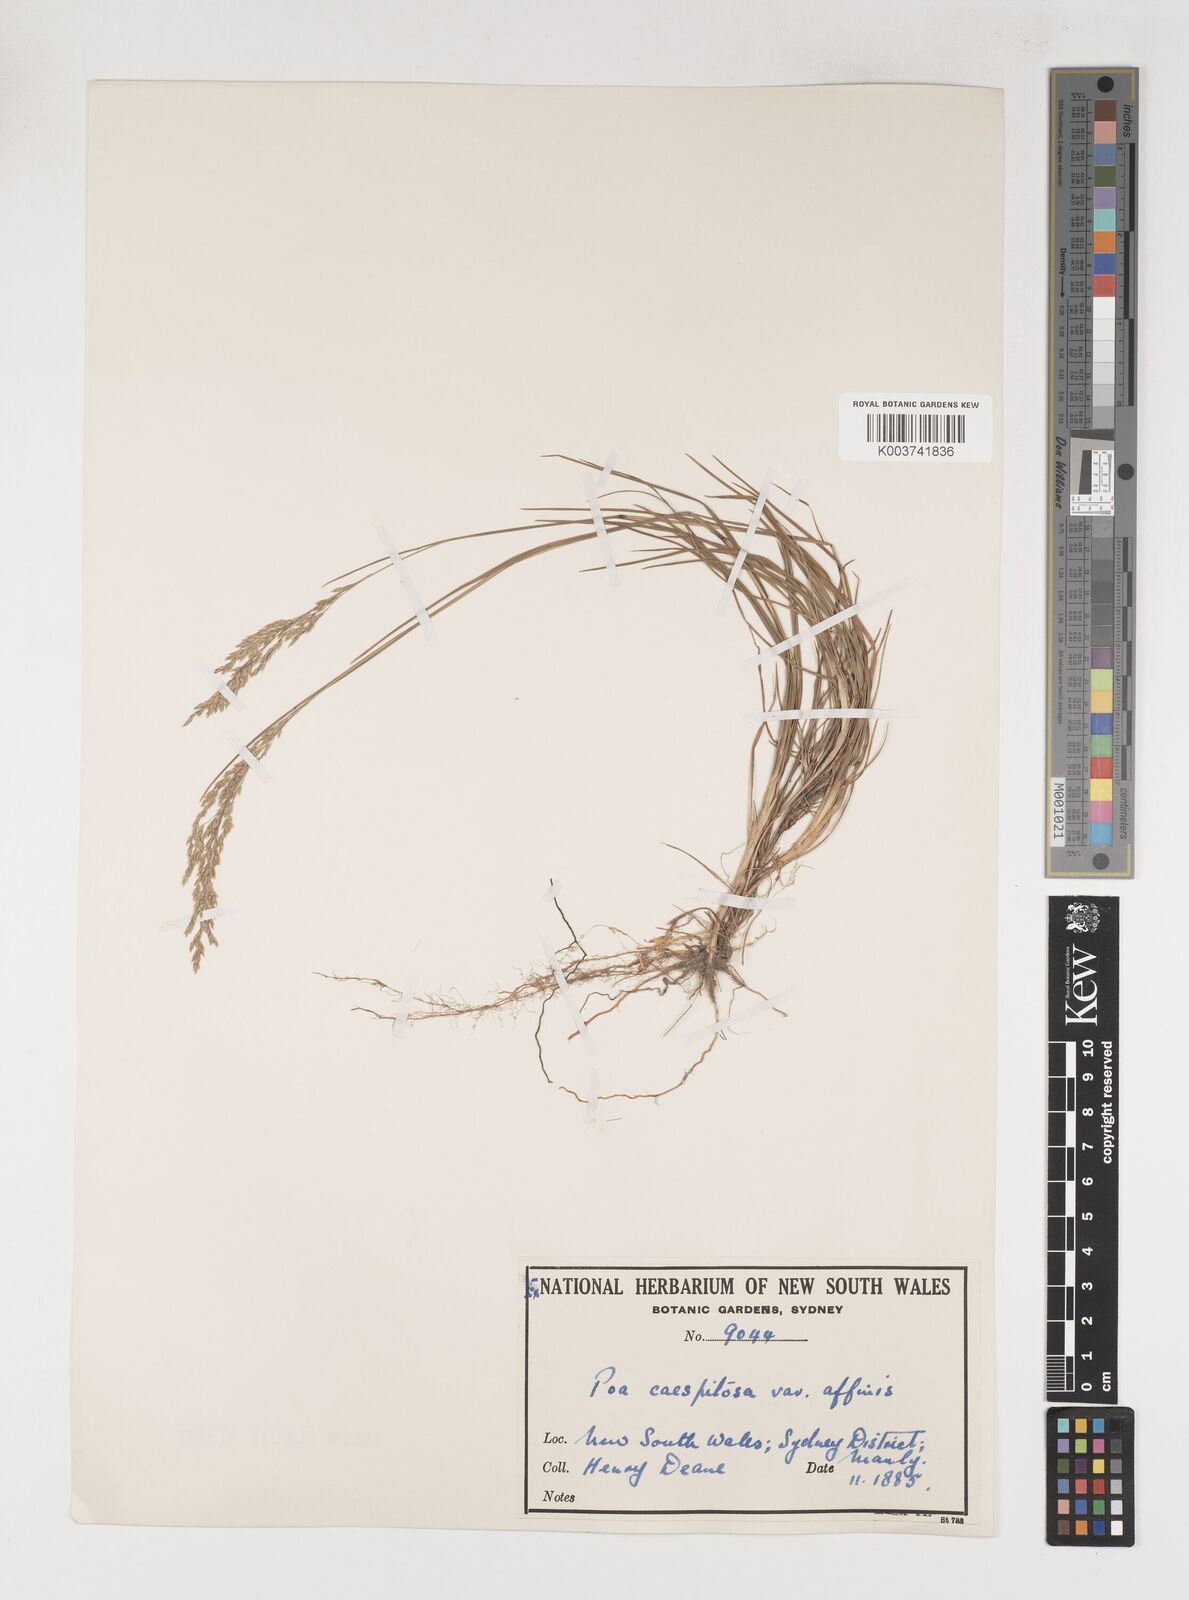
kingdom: Plantae
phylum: Tracheophyta
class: Liliopsida
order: Poales
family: Poaceae
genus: Poa
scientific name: Poa sieberiana
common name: Tussock poa
